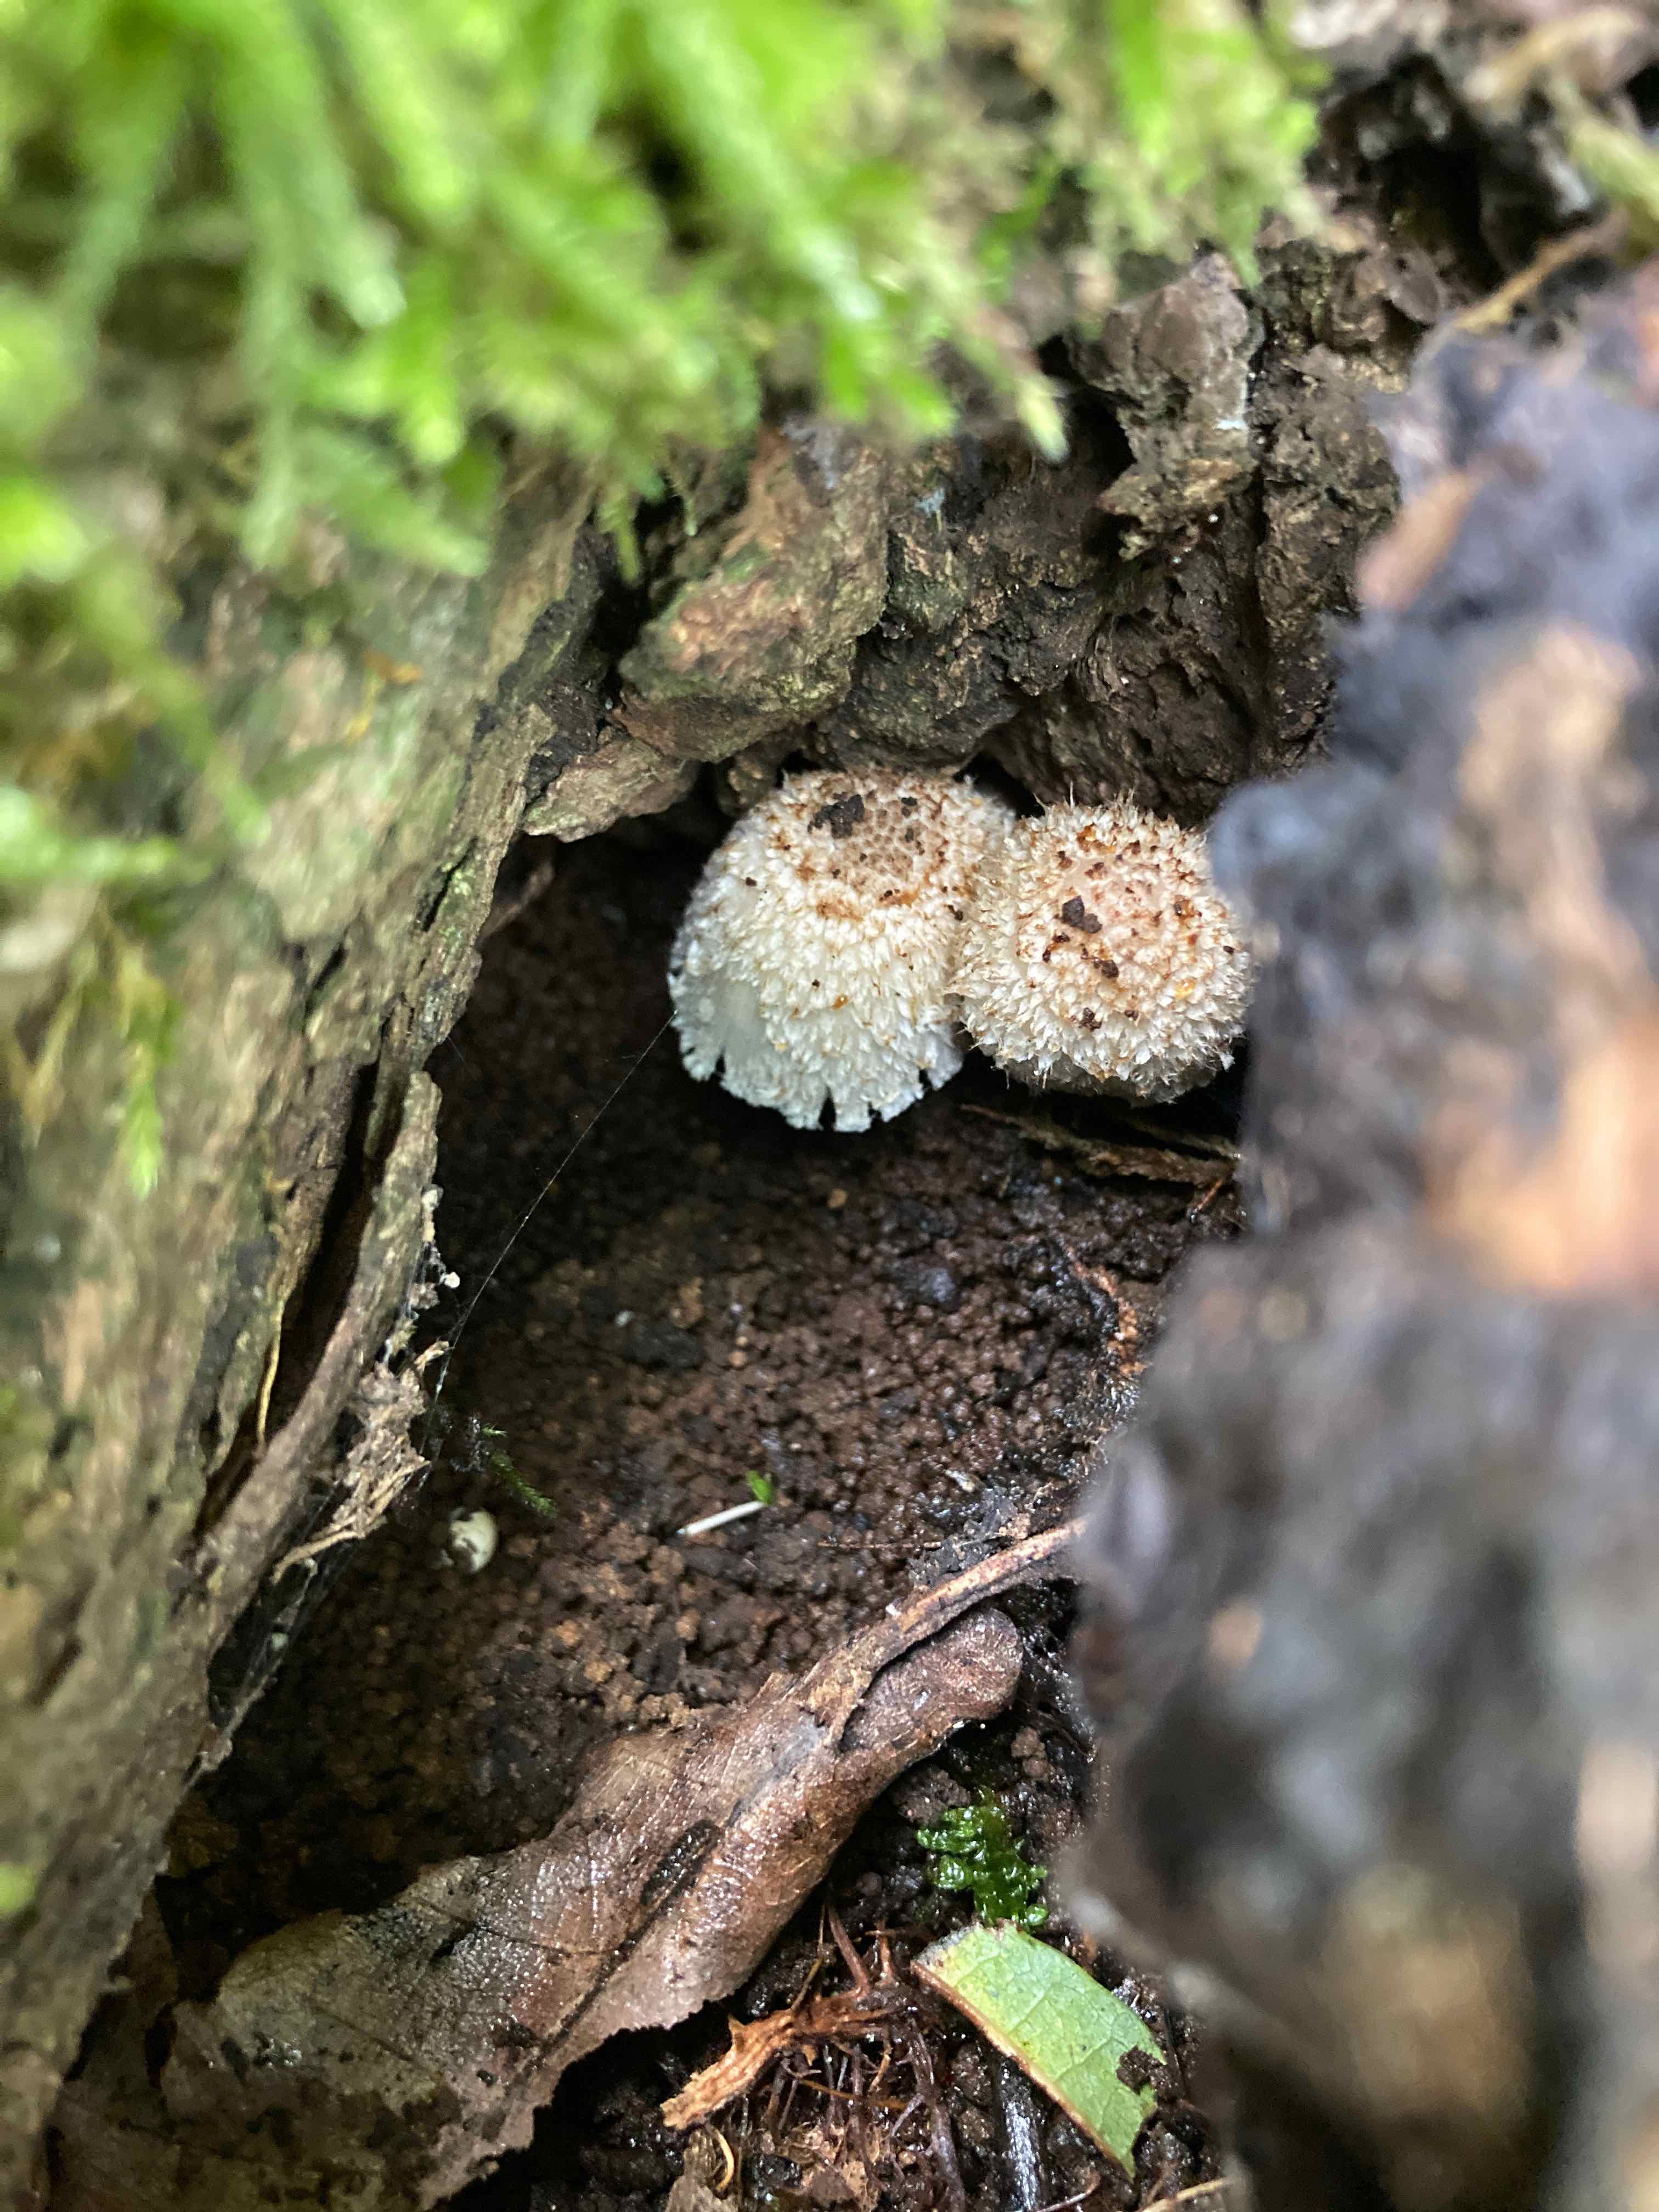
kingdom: Fungi
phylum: Basidiomycota
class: Agaricomycetes
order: Agaricales
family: Psathyrellaceae
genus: Coprinopsis
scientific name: Coprinopsis mitrispora
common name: hul-blækhat
